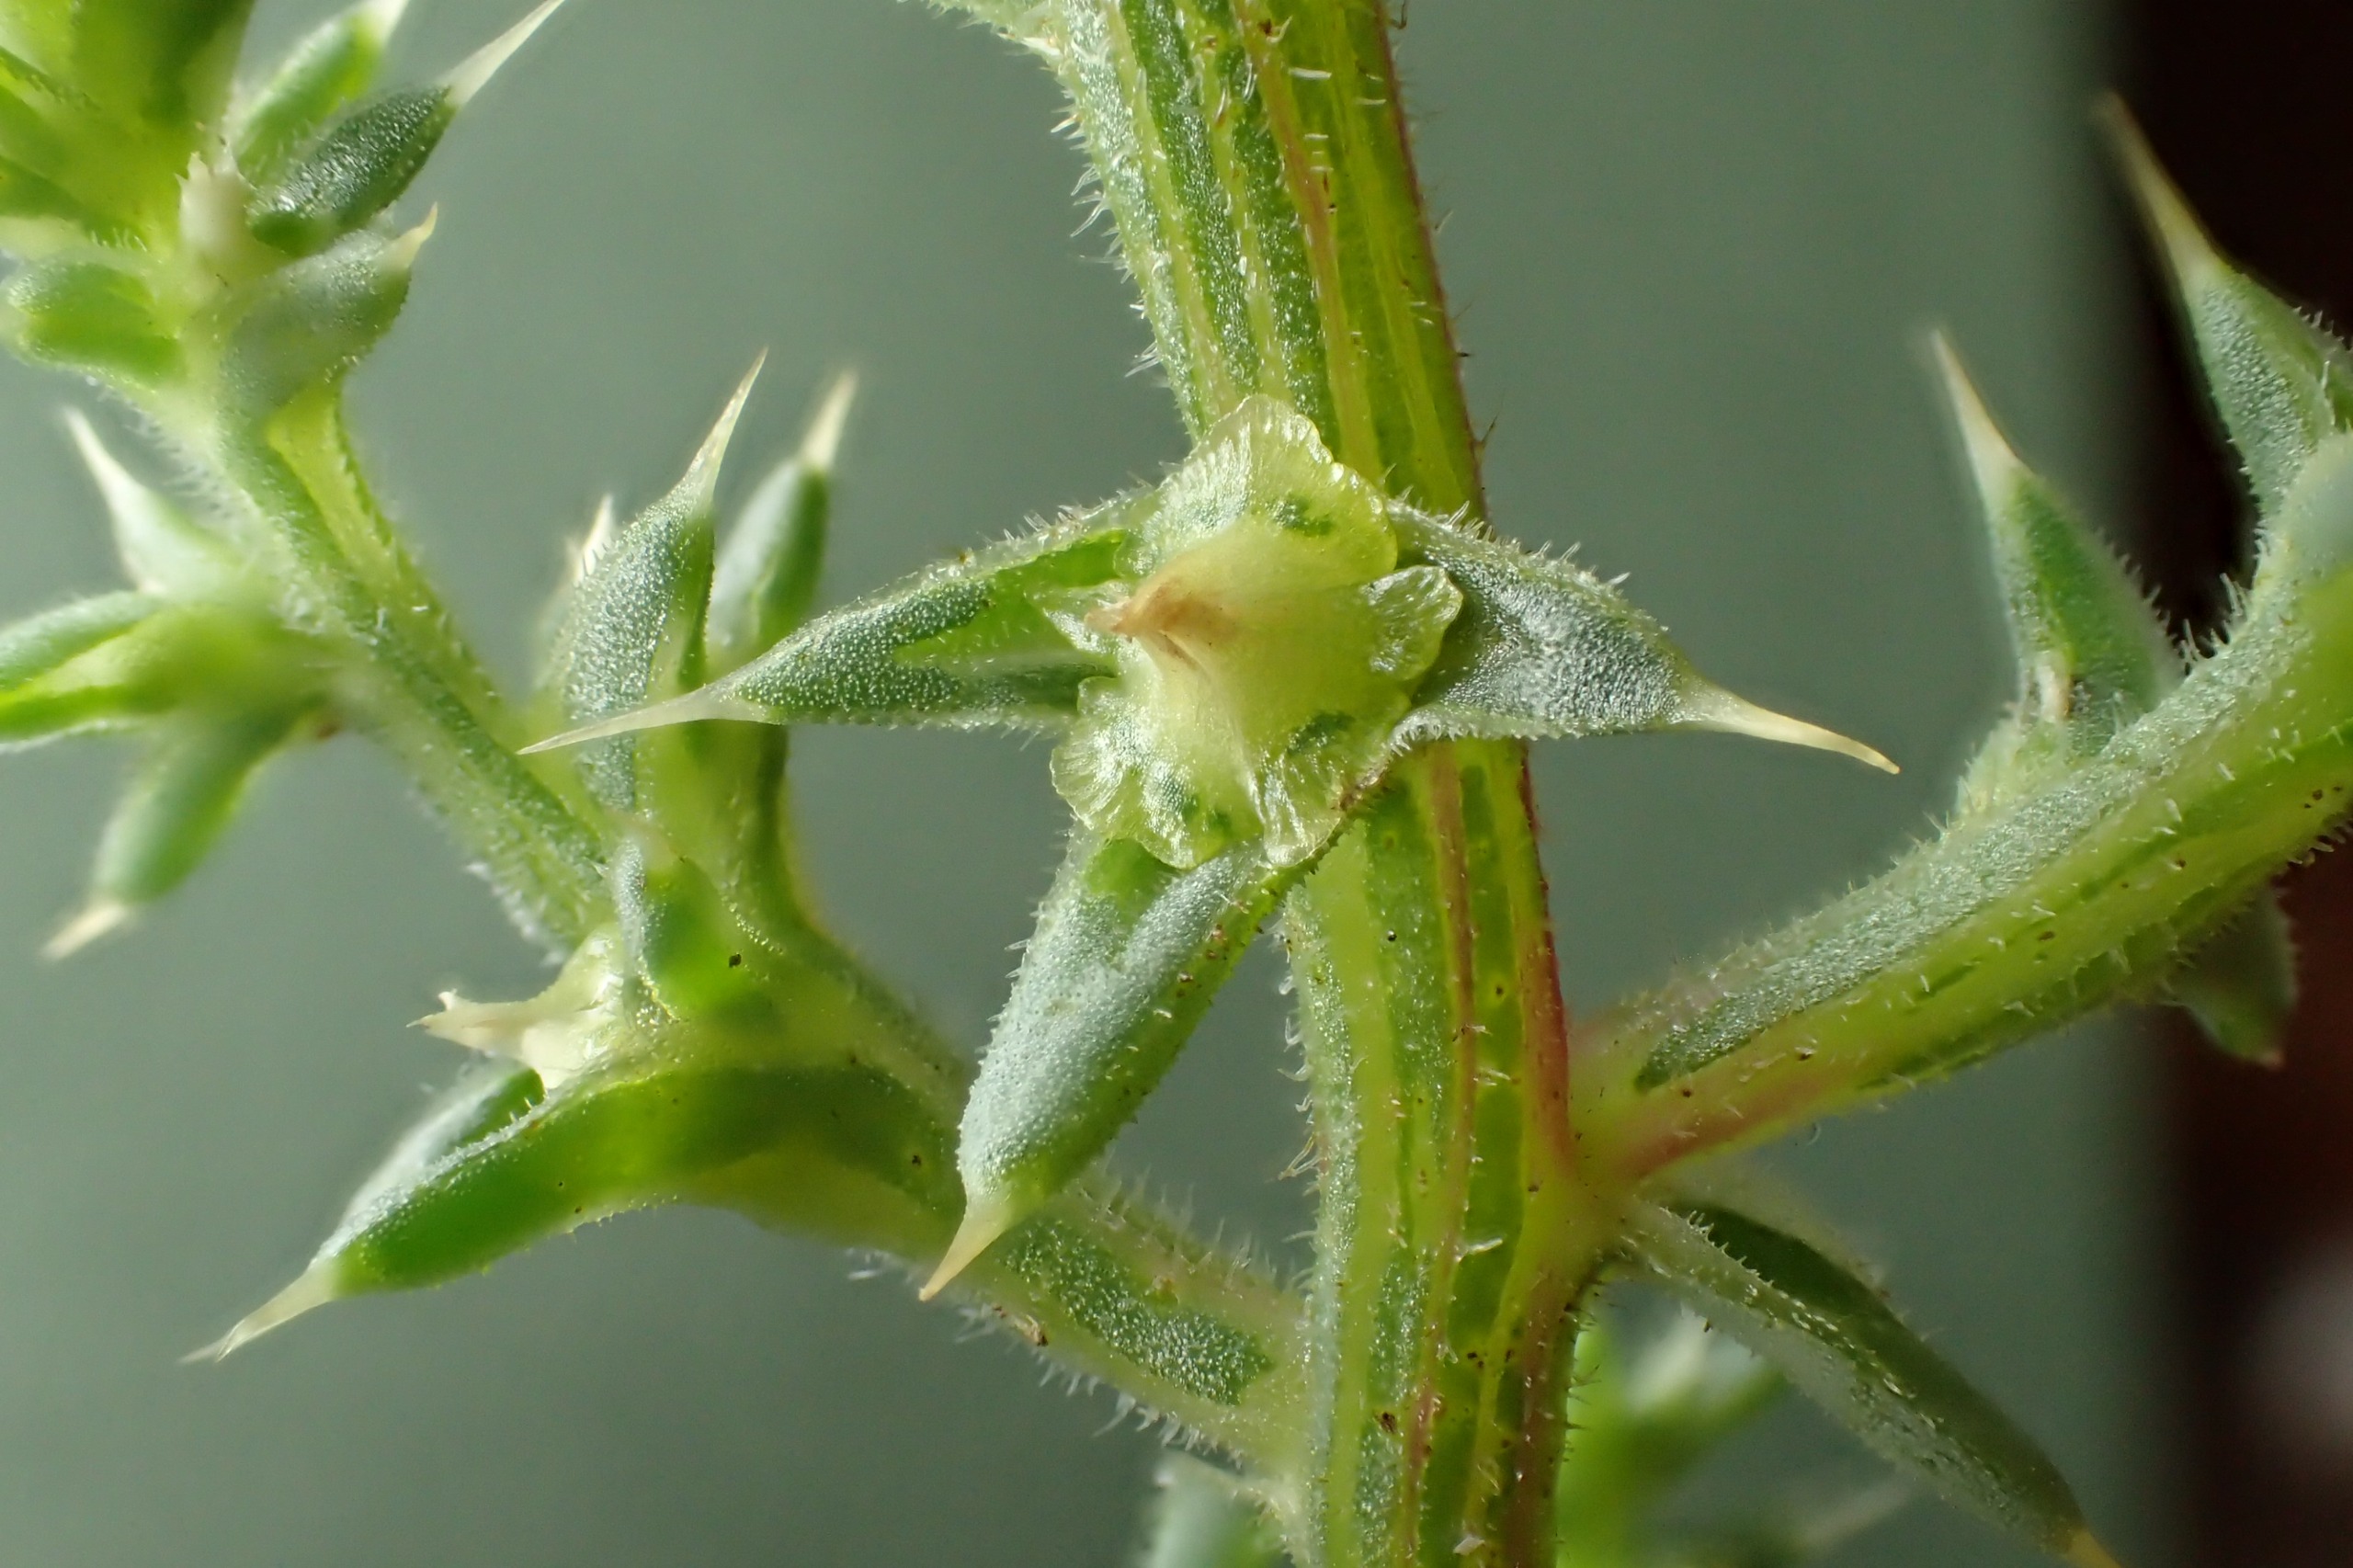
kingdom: Plantae
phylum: Tracheophyta
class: Magnoliopsida
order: Caryophyllales
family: Amaranthaceae
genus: Salsola
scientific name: Salsola kali
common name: Sodaurt
